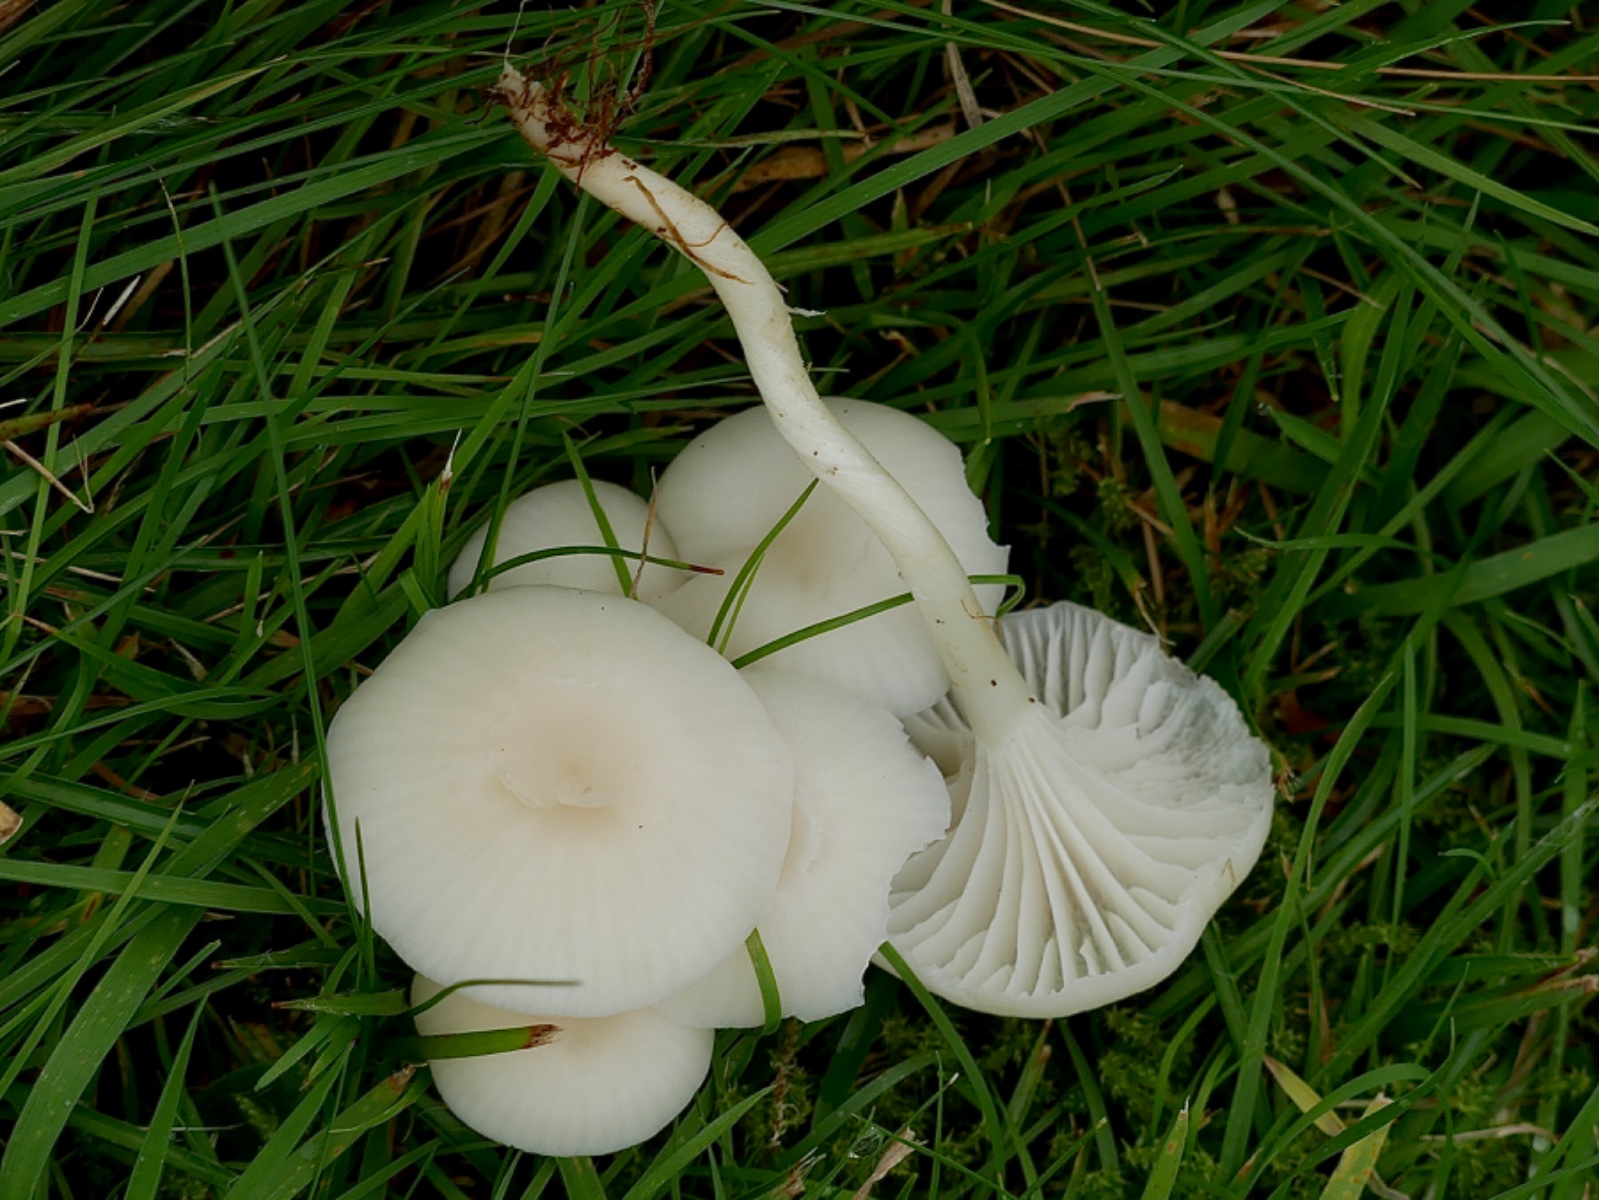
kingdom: Fungi
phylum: Basidiomycota
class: Agaricomycetes
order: Agaricales
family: Hygrophoraceae
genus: Cuphophyllus
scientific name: Cuphophyllus virgineus
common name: snehvid vokshat
